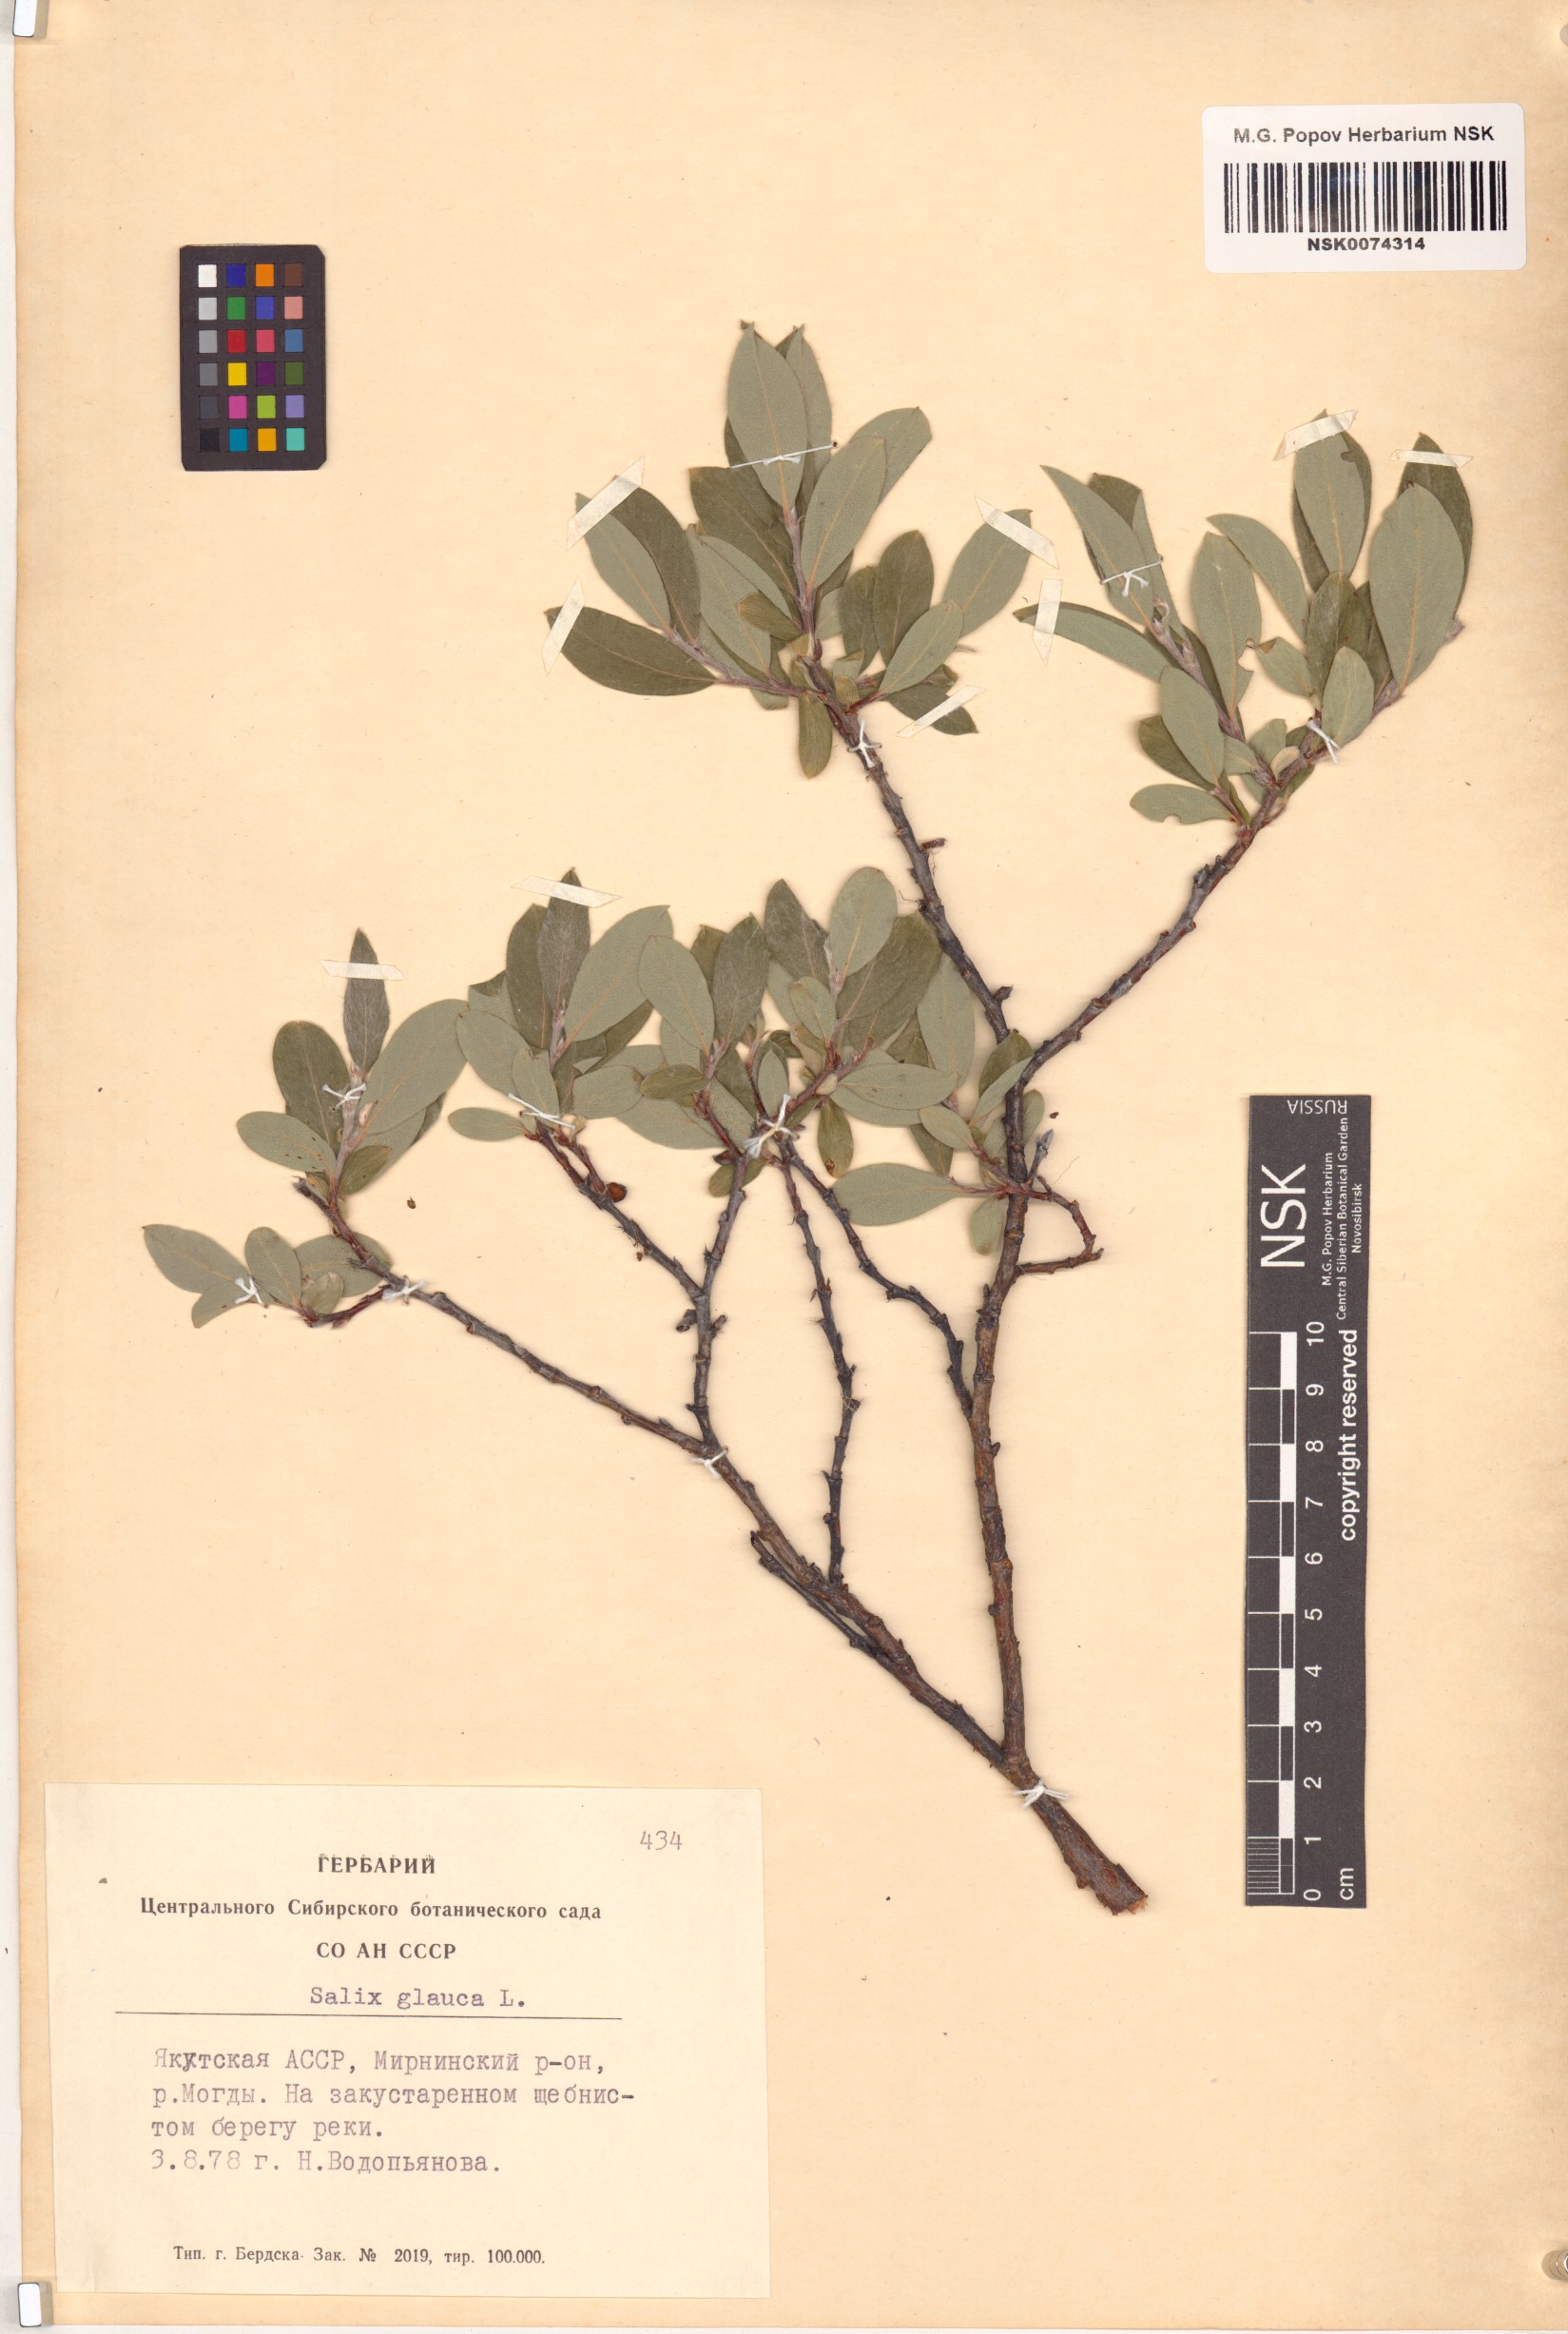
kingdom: Plantae
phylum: Tracheophyta
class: Magnoliopsida
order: Malpighiales
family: Salicaceae
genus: Salix
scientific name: Salix glauca
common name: Glaucous willow
